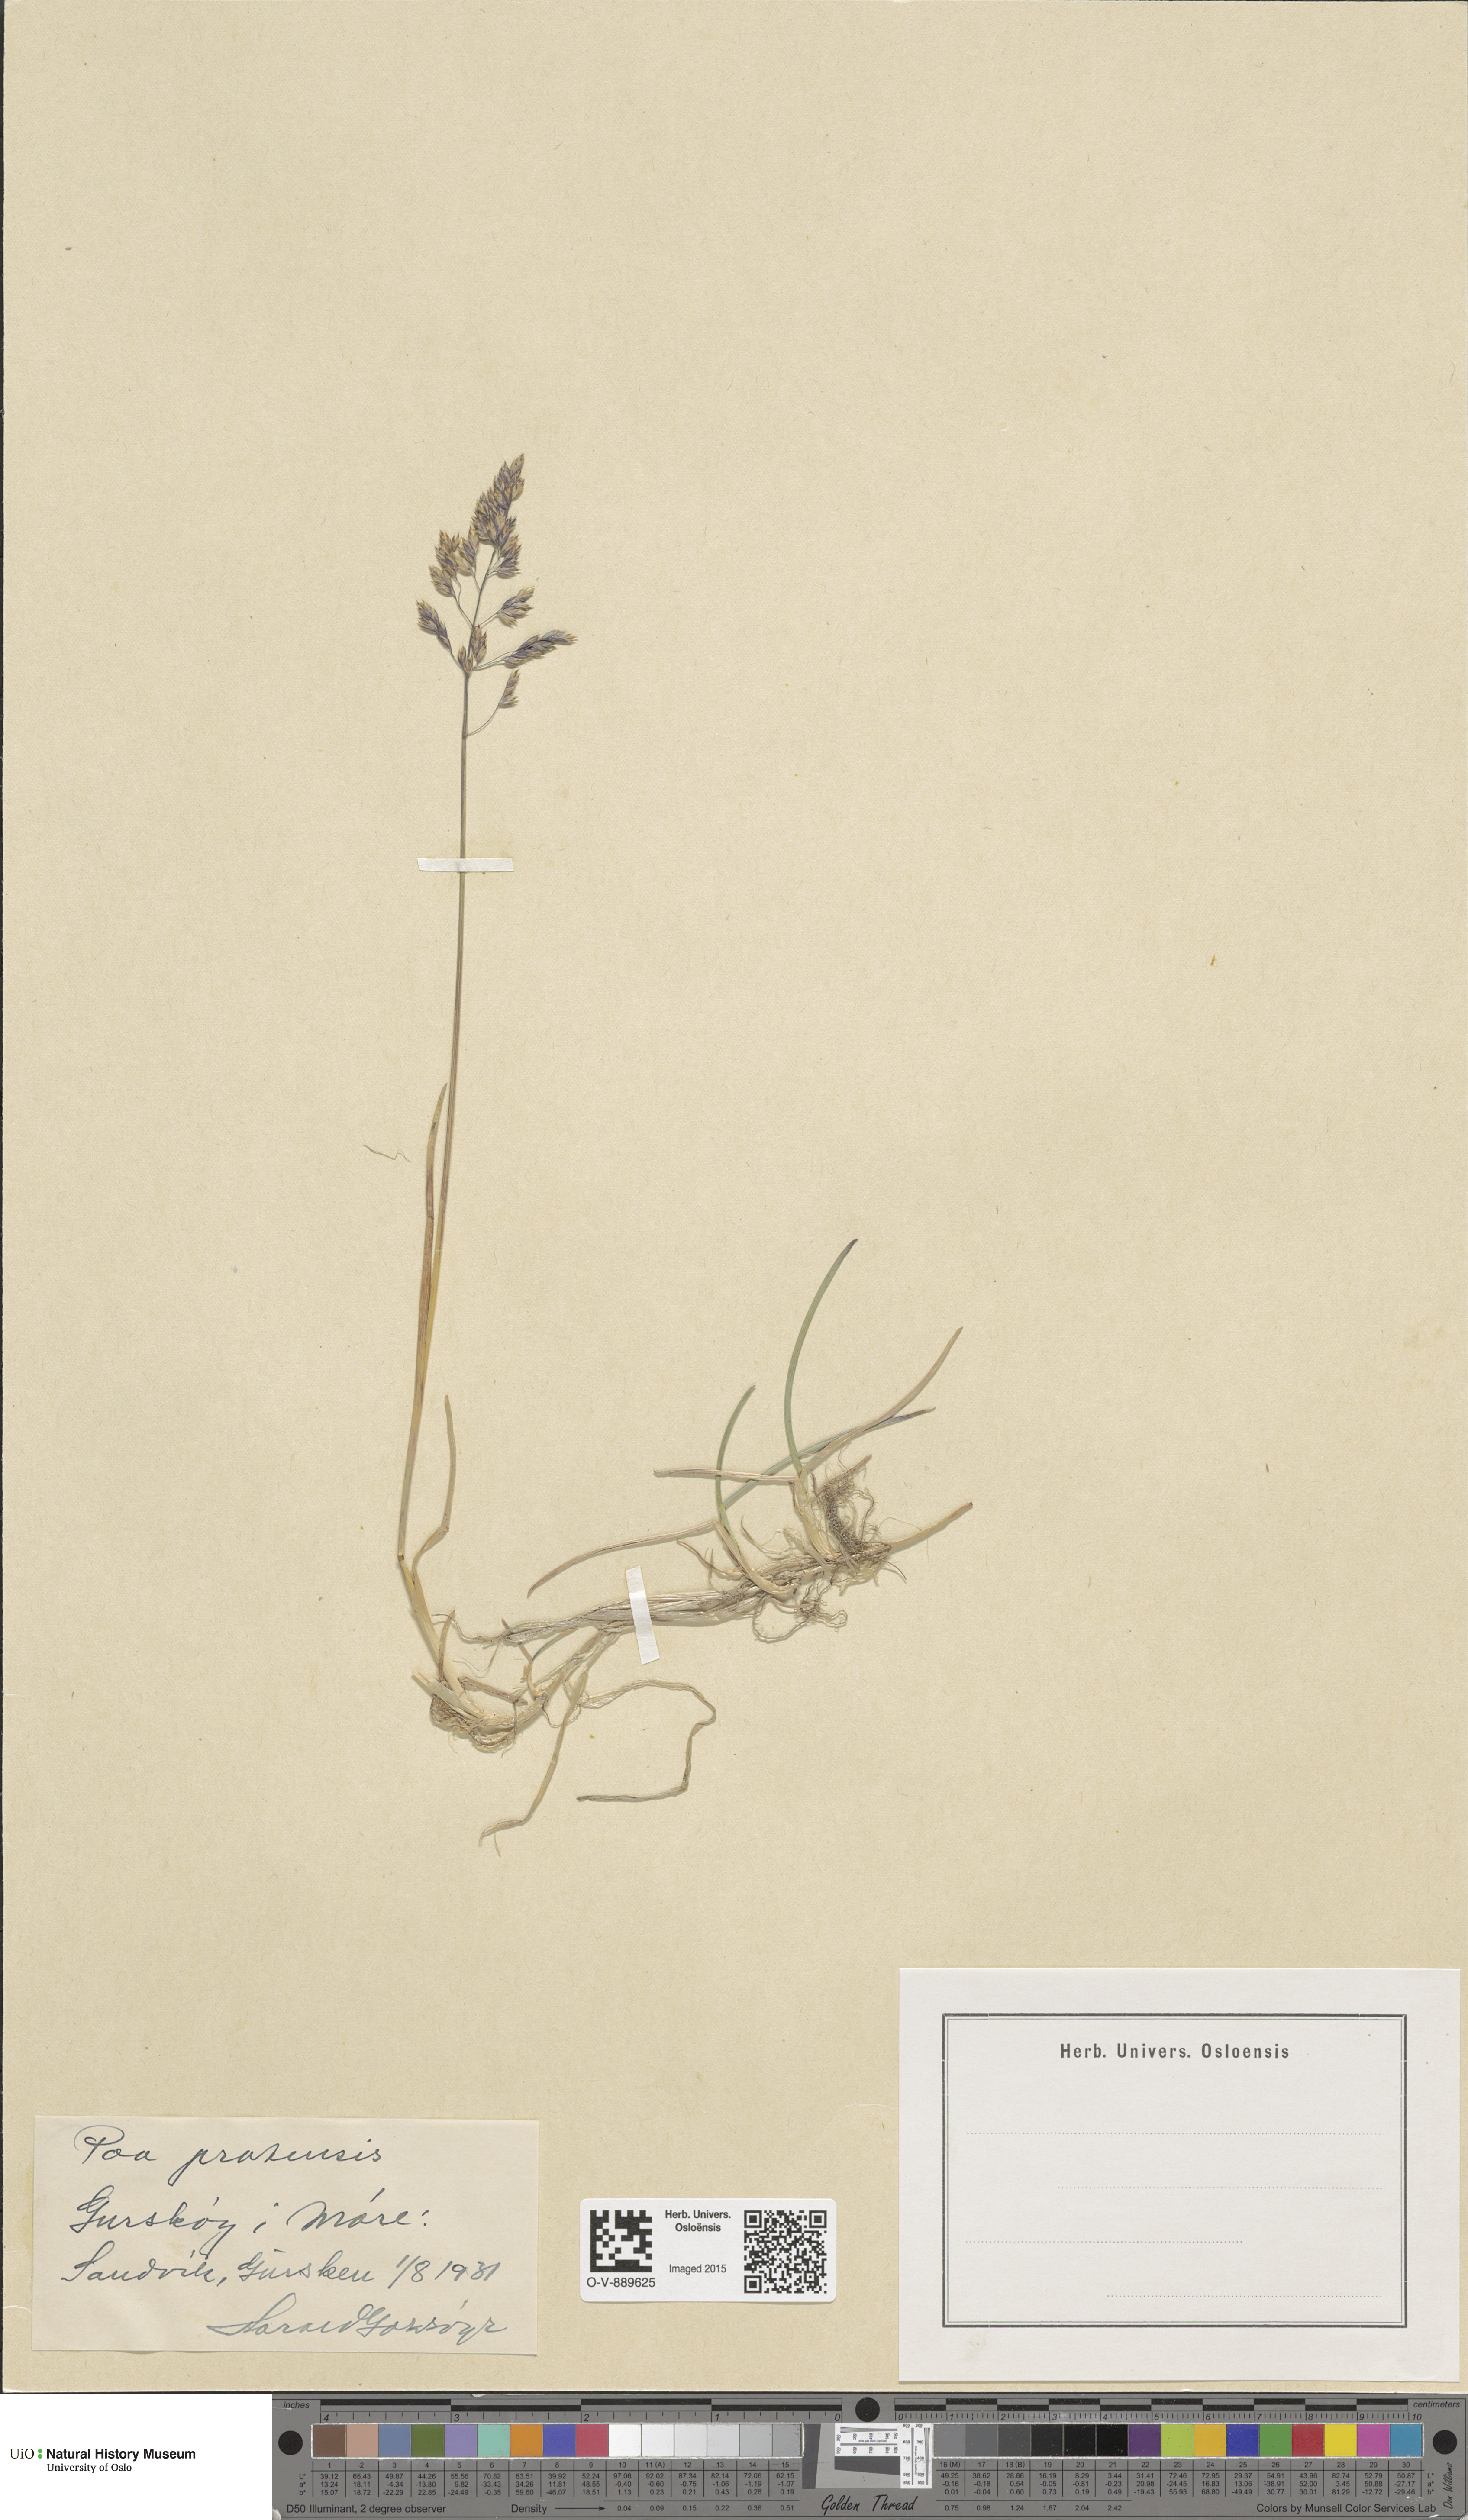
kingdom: Plantae
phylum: Tracheophyta
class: Liliopsida
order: Poales
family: Poaceae
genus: Poa
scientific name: Poa pratensis
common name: Kentucky bluegrass
